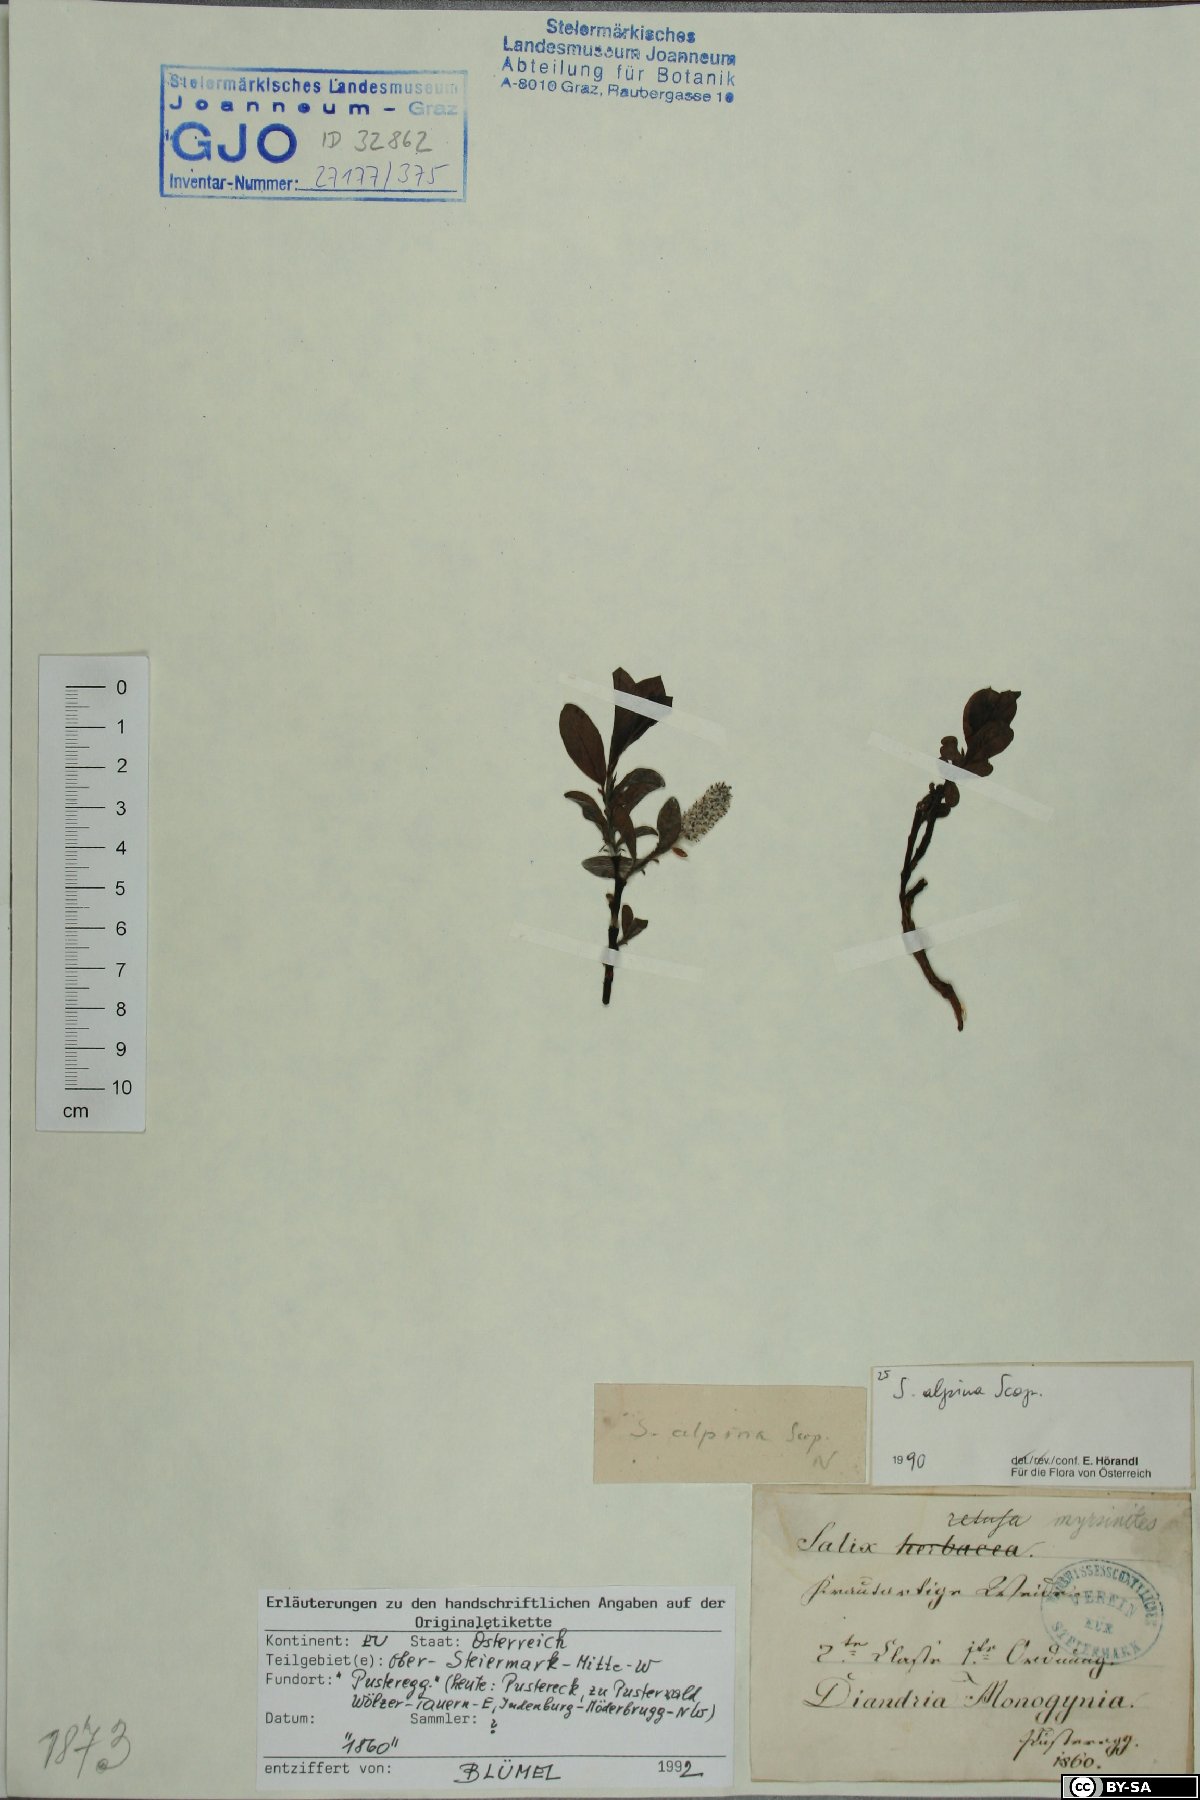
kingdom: Plantae
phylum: Tracheophyta
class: Magnoliopsida
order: Malpighiales
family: Salicaceae
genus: Salix
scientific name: Salix alpina
